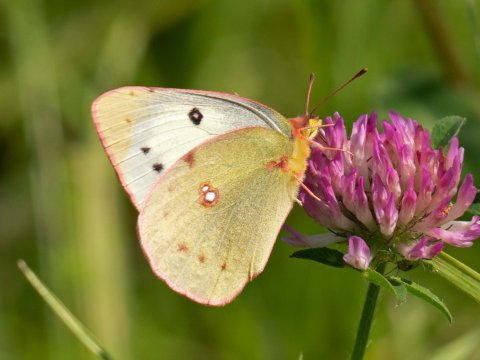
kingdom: Animalia
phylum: Arthropoda
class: Insecta
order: Lepidoptera
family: Pieridae
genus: Colias
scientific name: Colias philodice
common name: Clouded Sulphur
